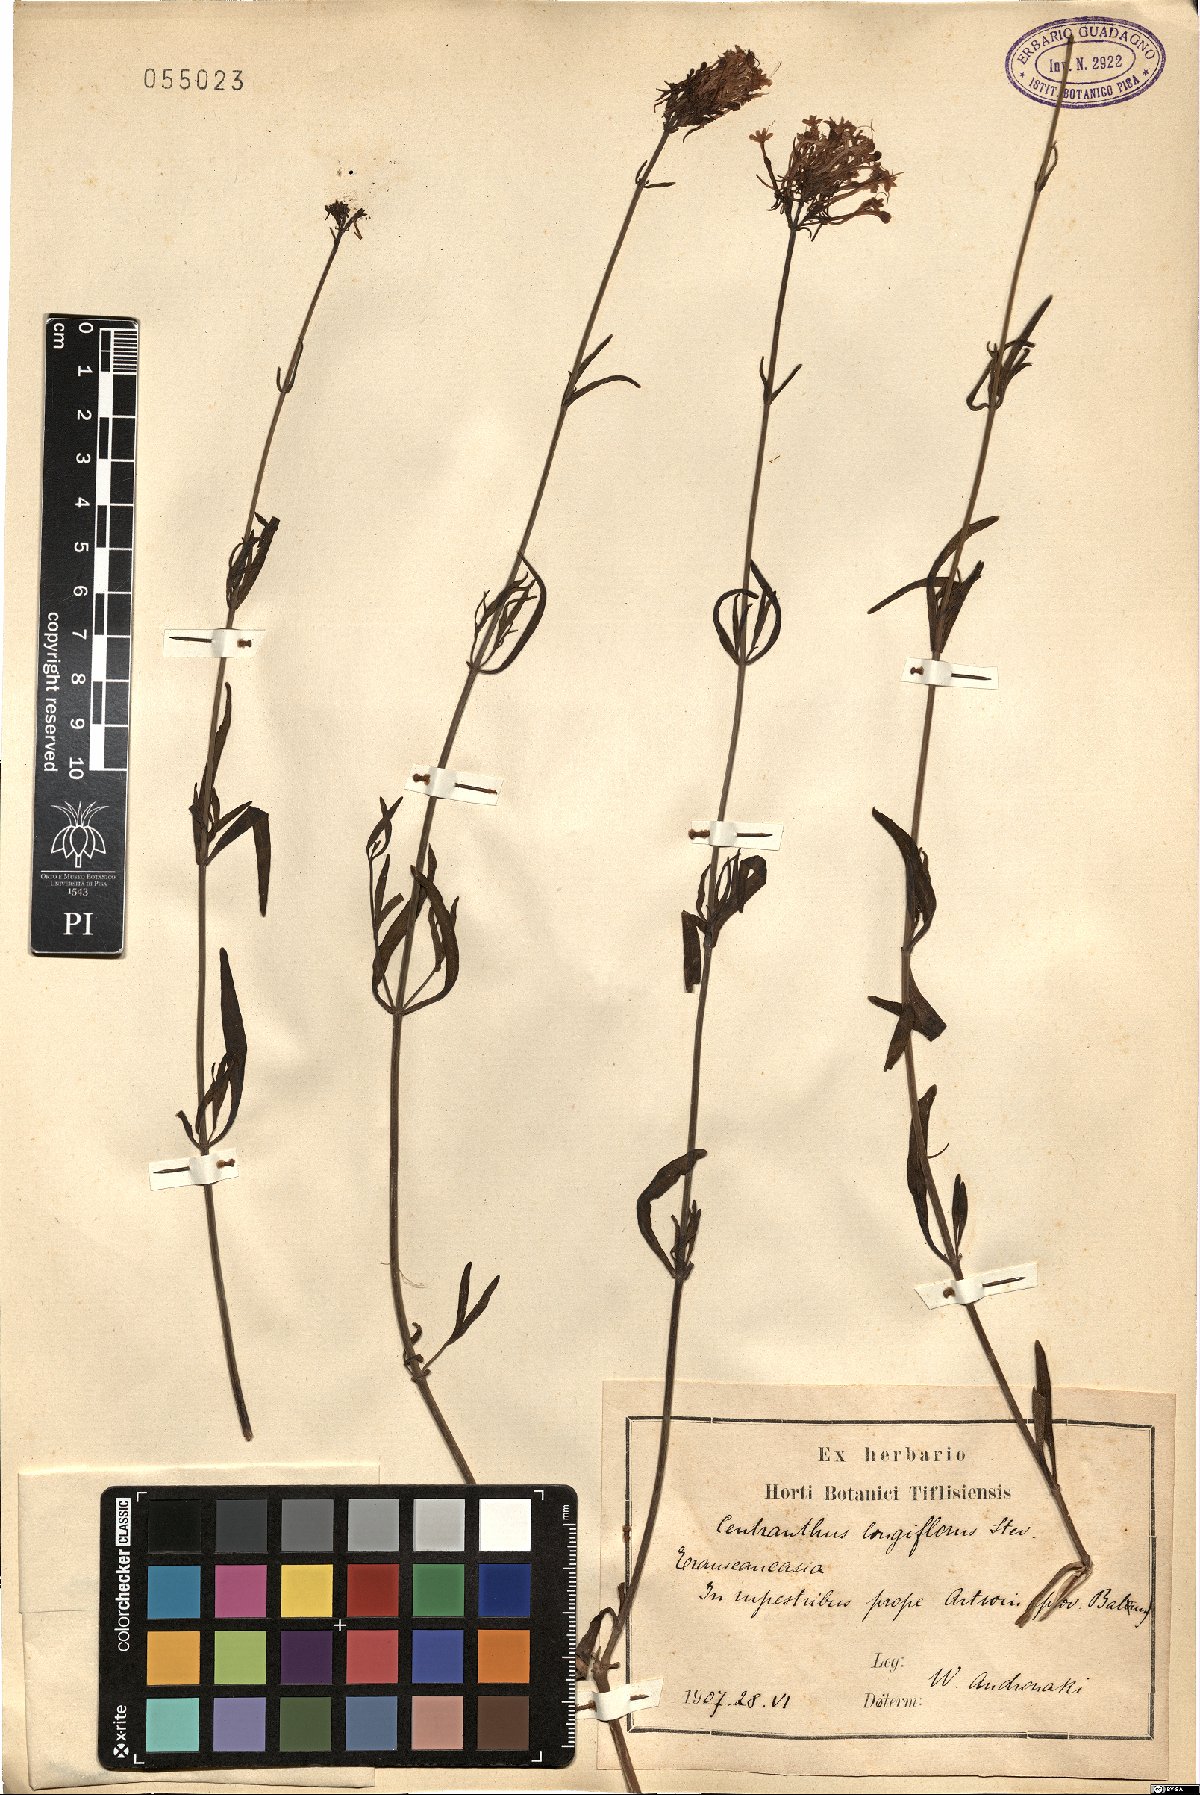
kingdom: Plantae
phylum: Tracheophyta
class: Magnoliopsida
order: Dipsacales
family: Caprifoliaceae
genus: Centranthus
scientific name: Centranthus longiflorus
